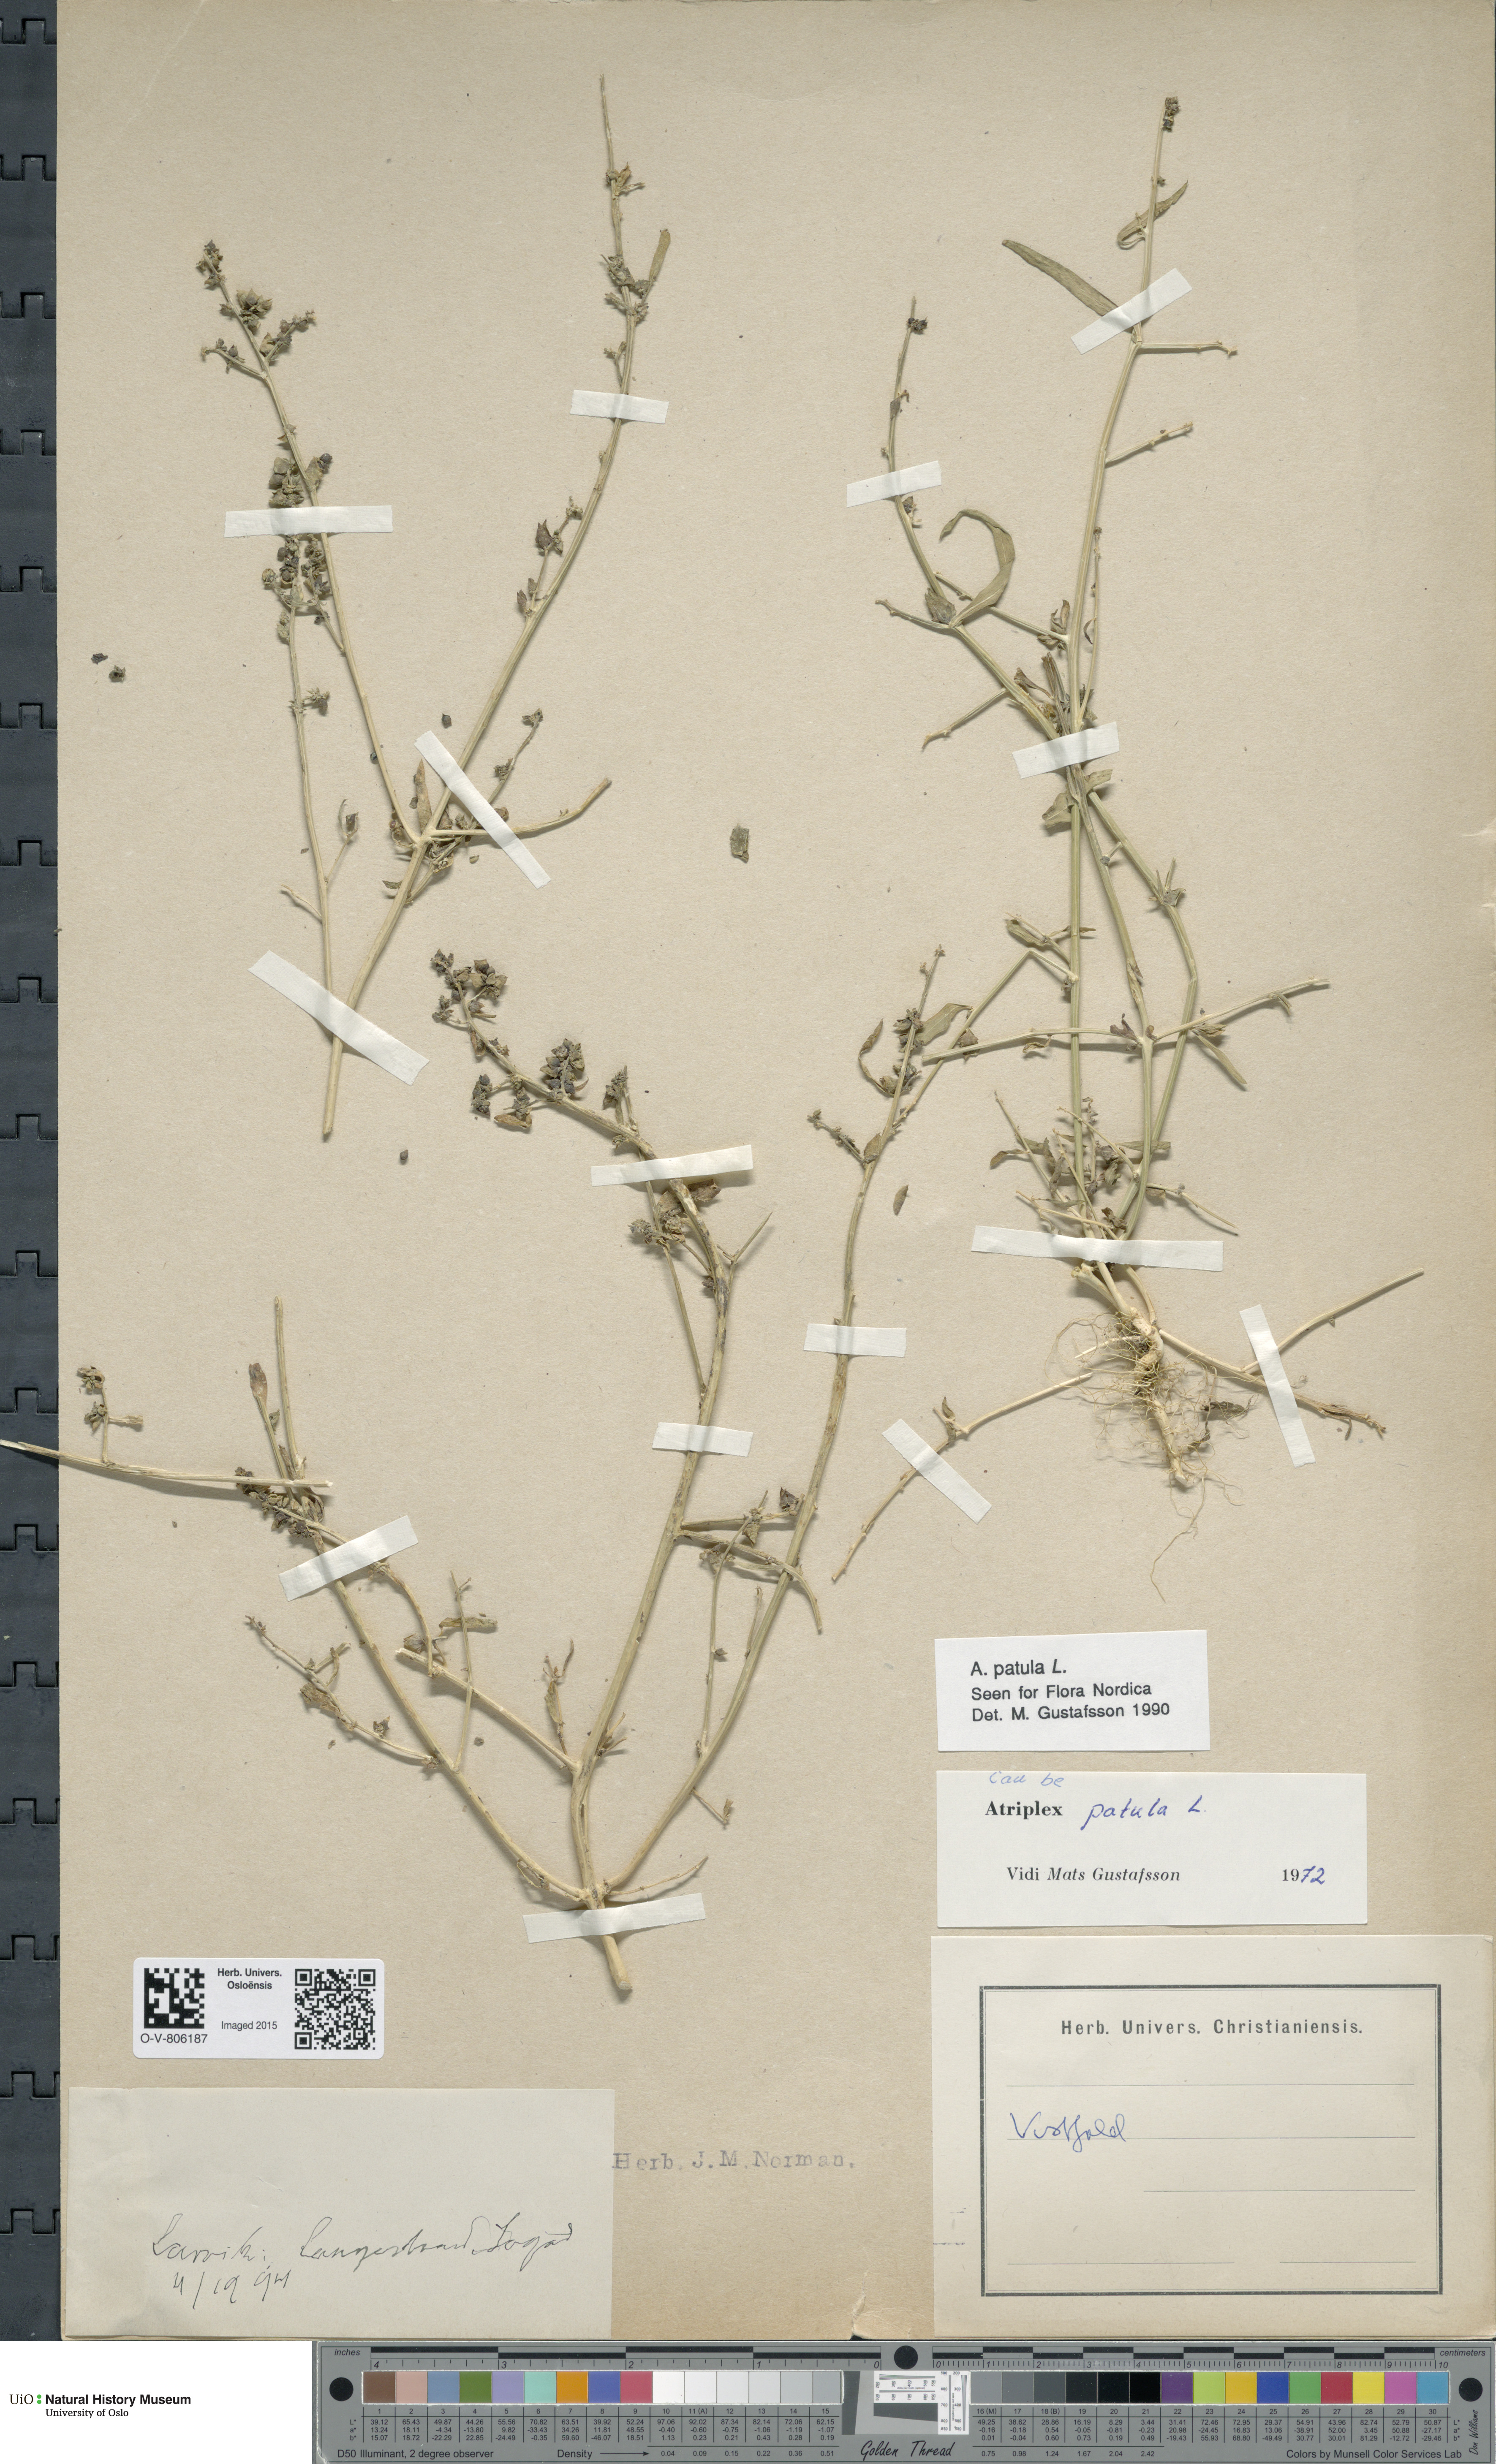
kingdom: Plantae
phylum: Tracheophyta
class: Magnoliopsida
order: Caryophyllales
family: Amaranthaceae
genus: Atriplex
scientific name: Atriplex patula
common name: Common orache
